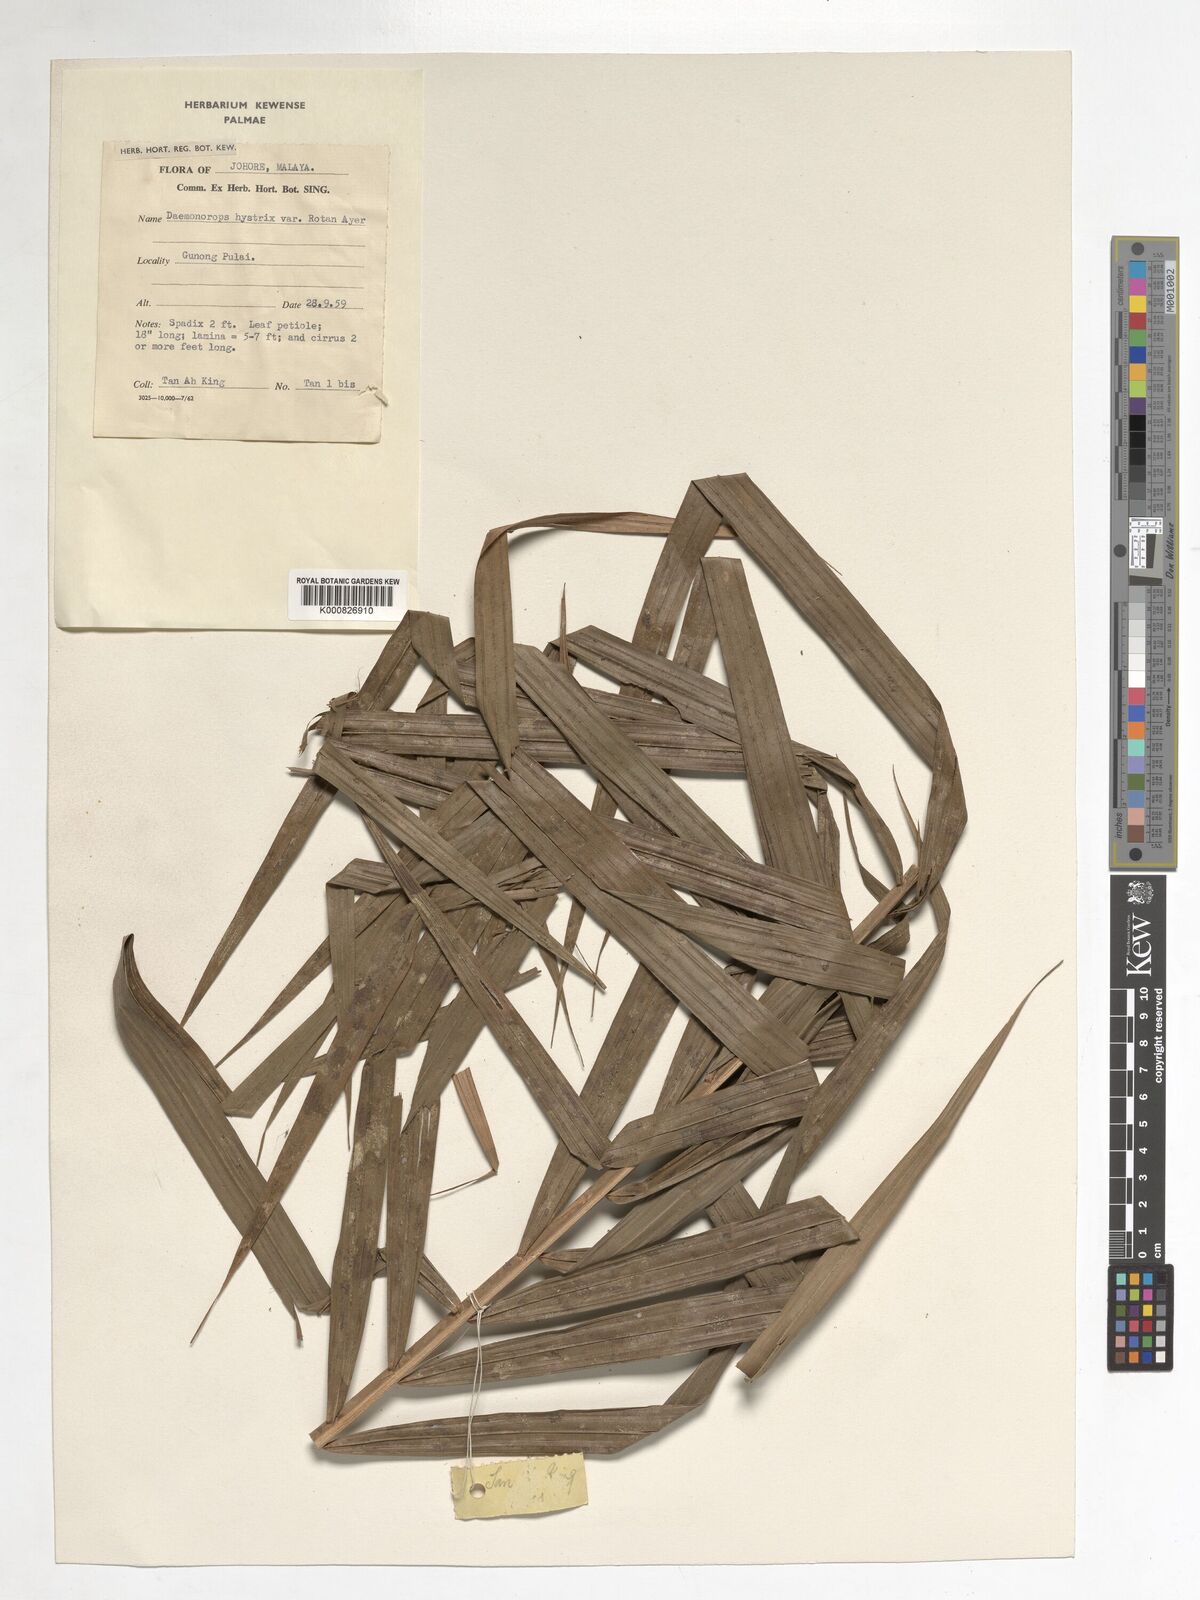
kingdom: Plantae
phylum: Tracheophyta
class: Liliopsida
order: Arecales
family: Arecaceae
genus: Calamus
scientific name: Calamus hirsutus
